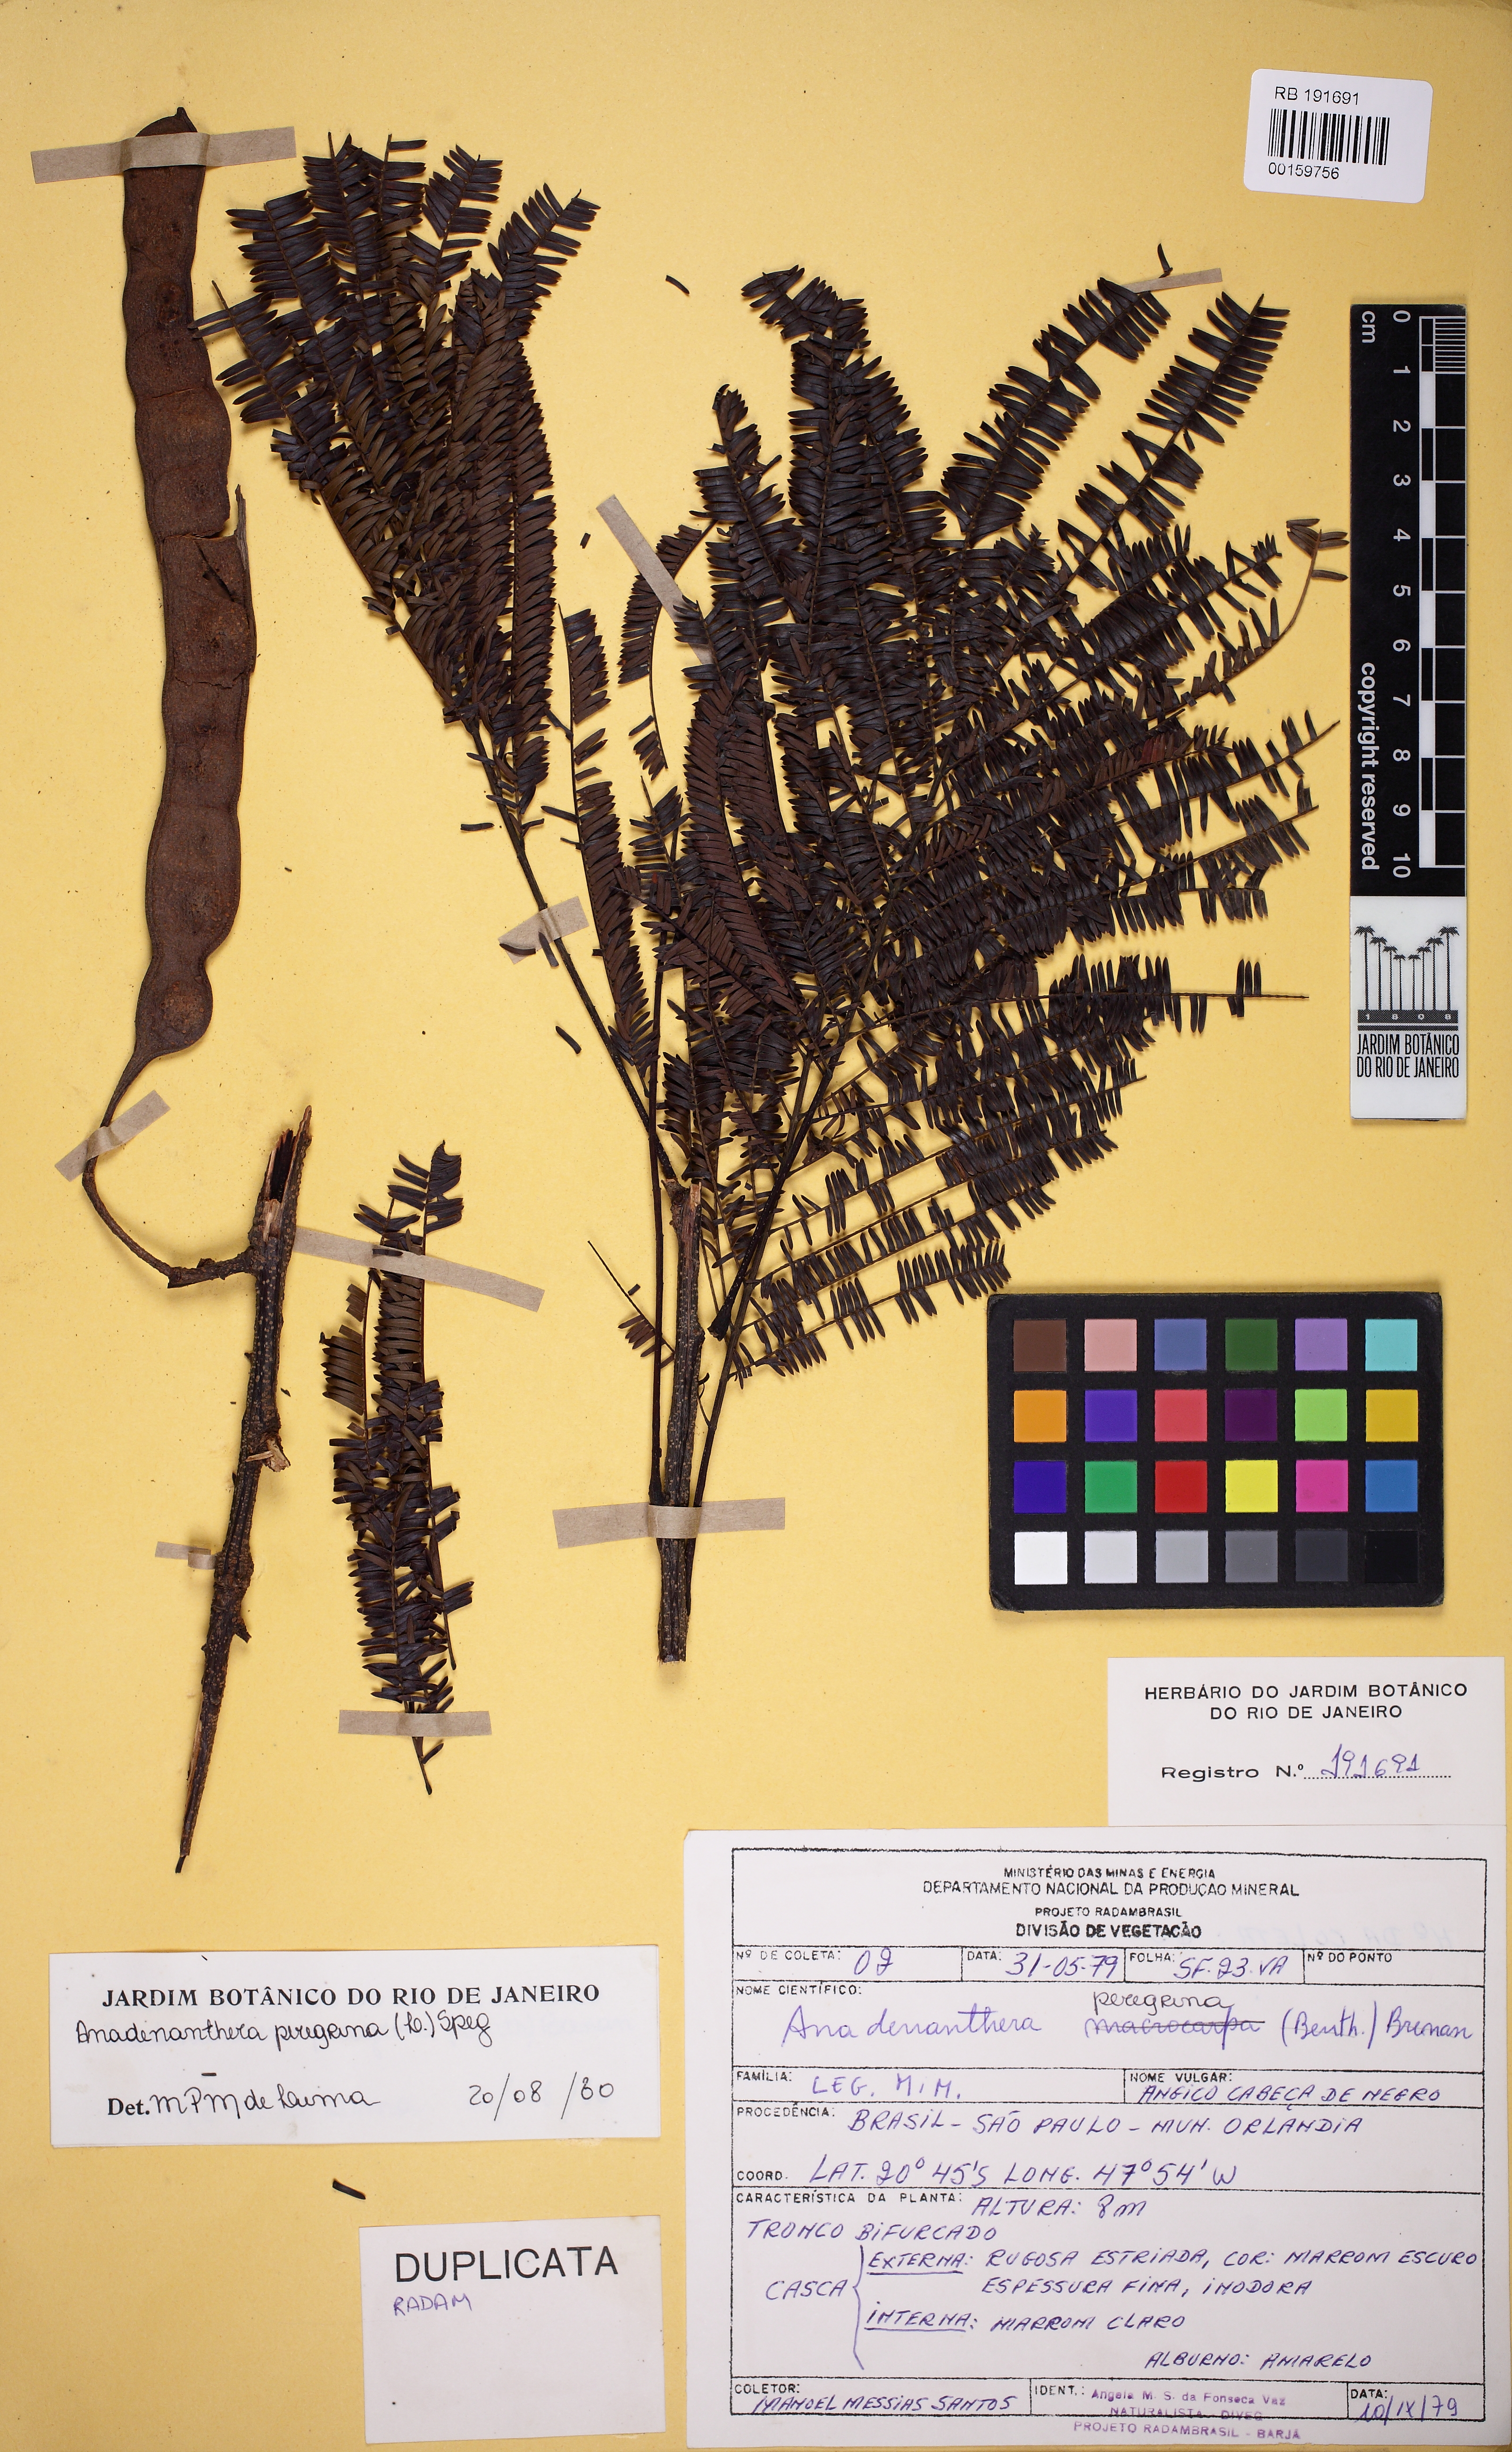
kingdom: Plantae
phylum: Tracheophyta
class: Magnoliopsida
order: Fabales
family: Fabaceae
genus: Anadenanthera
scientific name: Anadenanthera peregrina
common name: Cohoba
